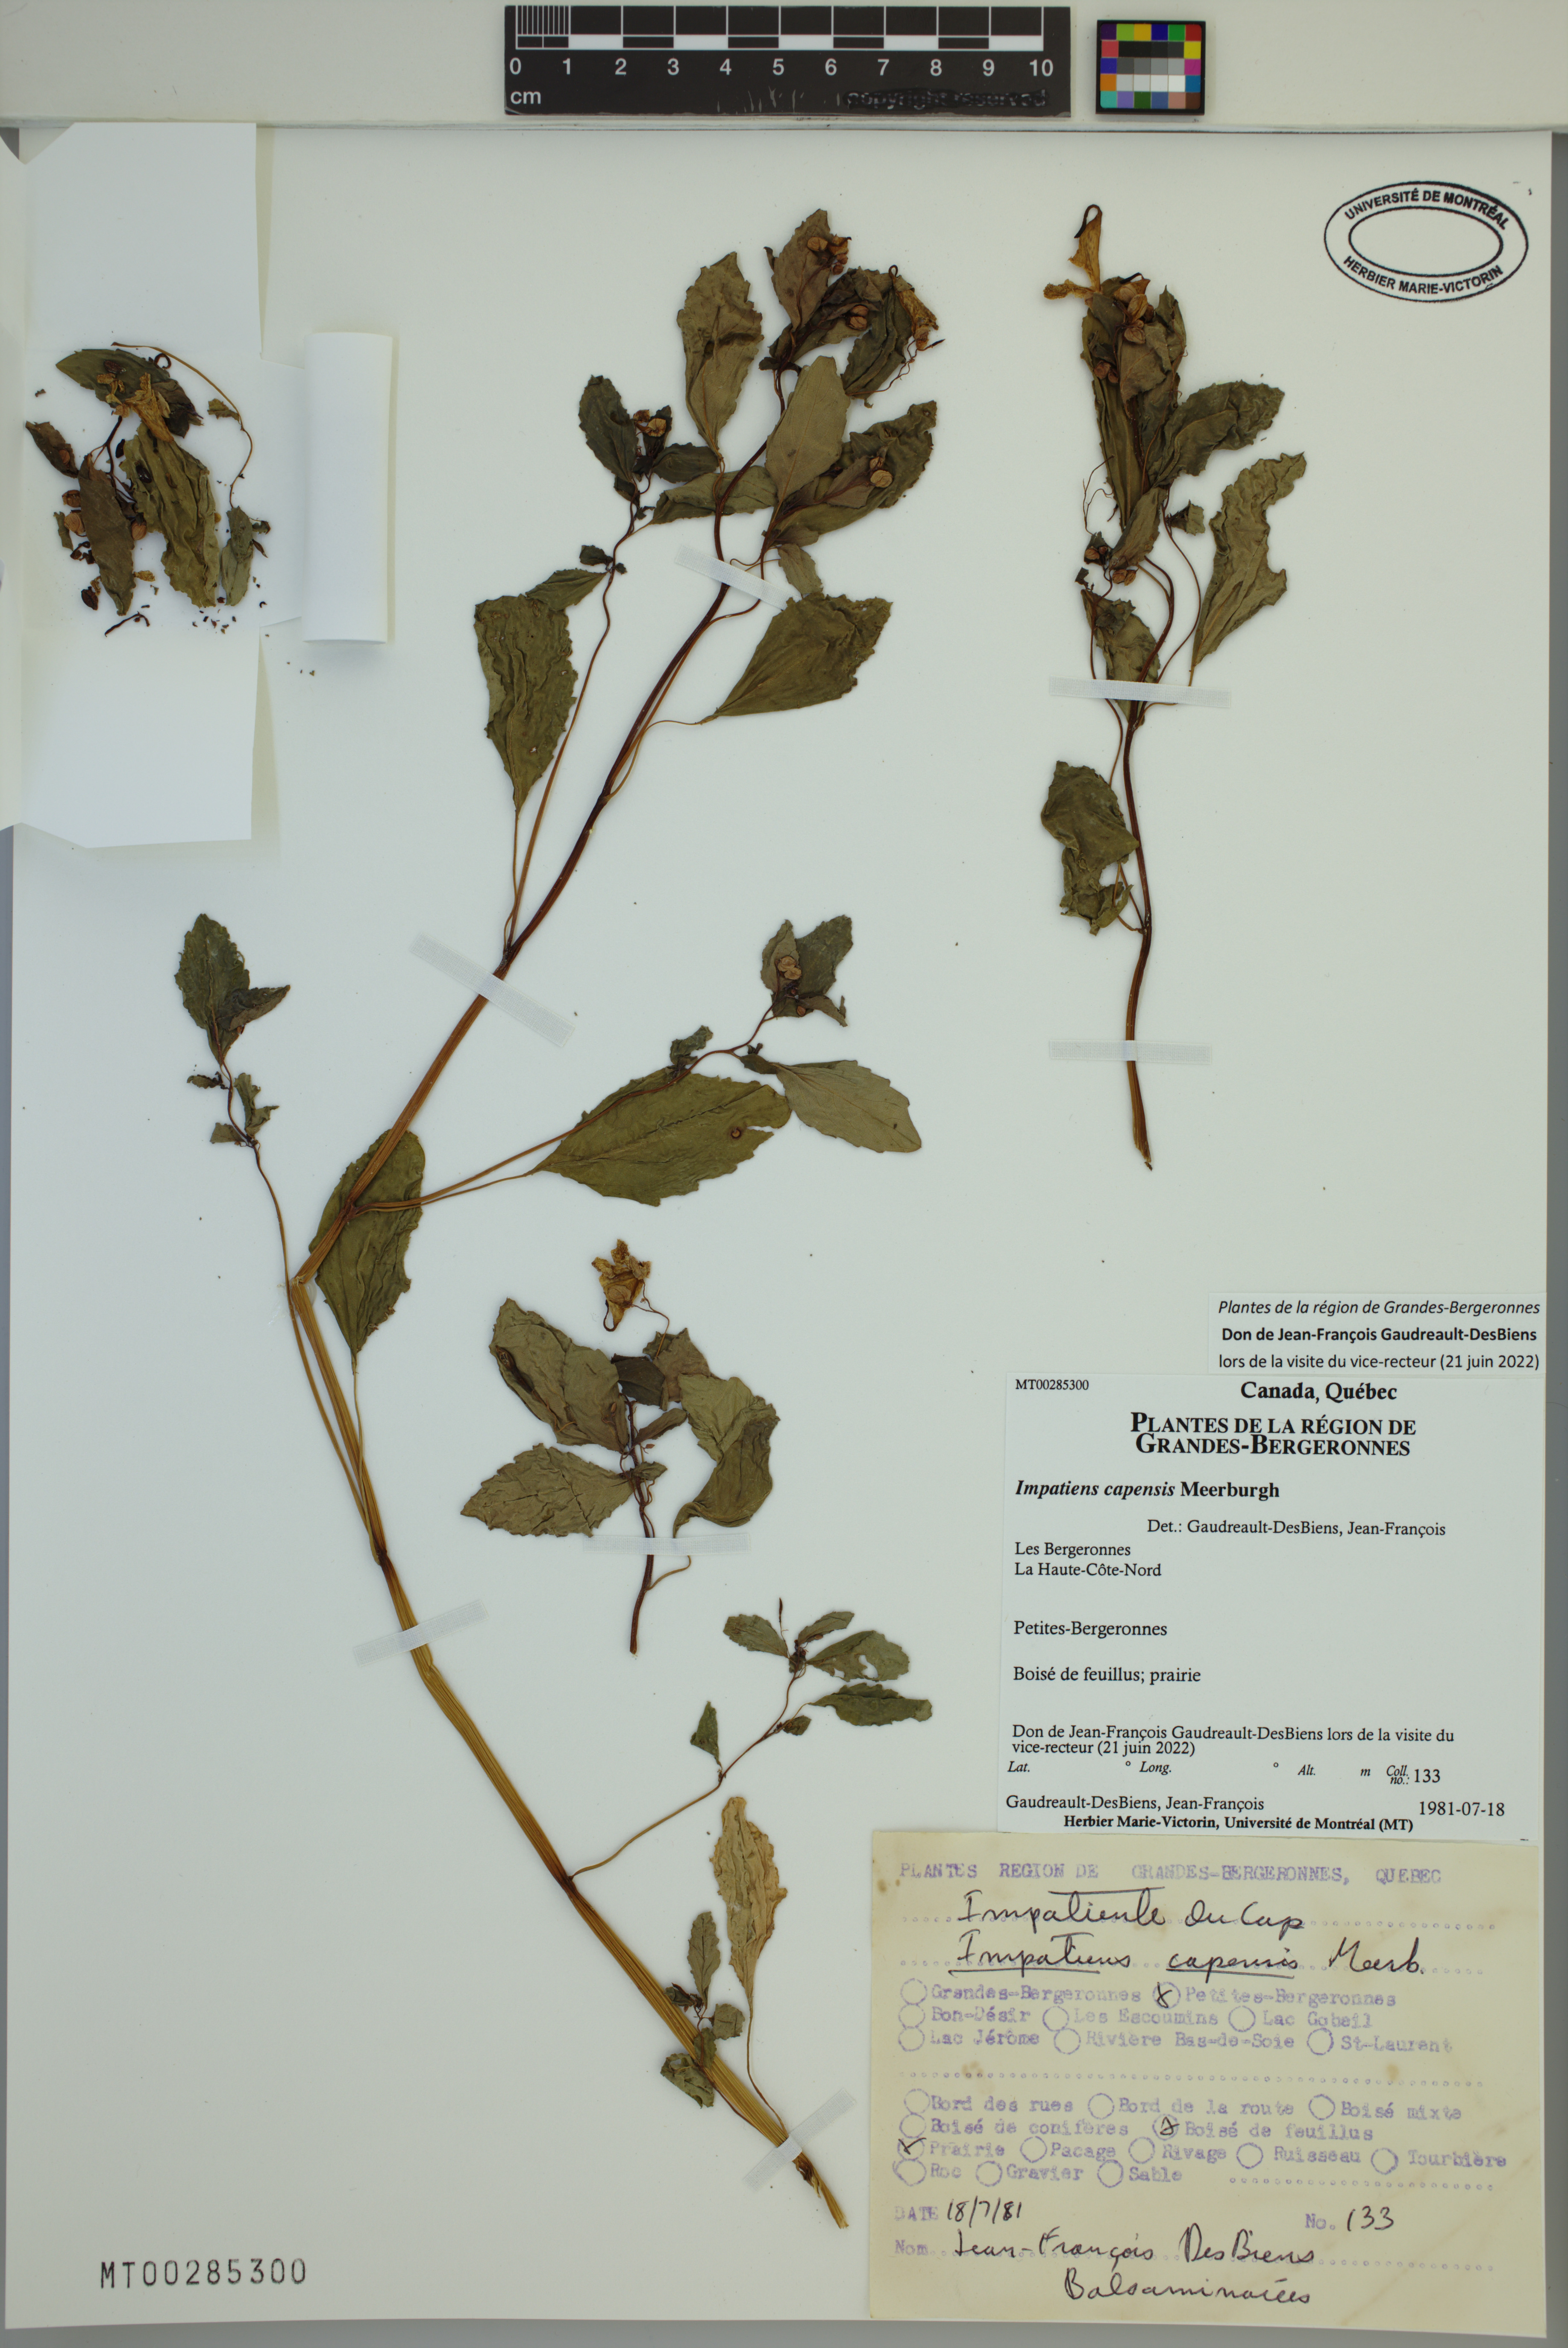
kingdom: Plantae
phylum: Tracheophyta
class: Magnoliopsida
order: Ericales
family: Balsaminaceae
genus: Impatiens
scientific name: Impatiens capensis
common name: Orange balsam
